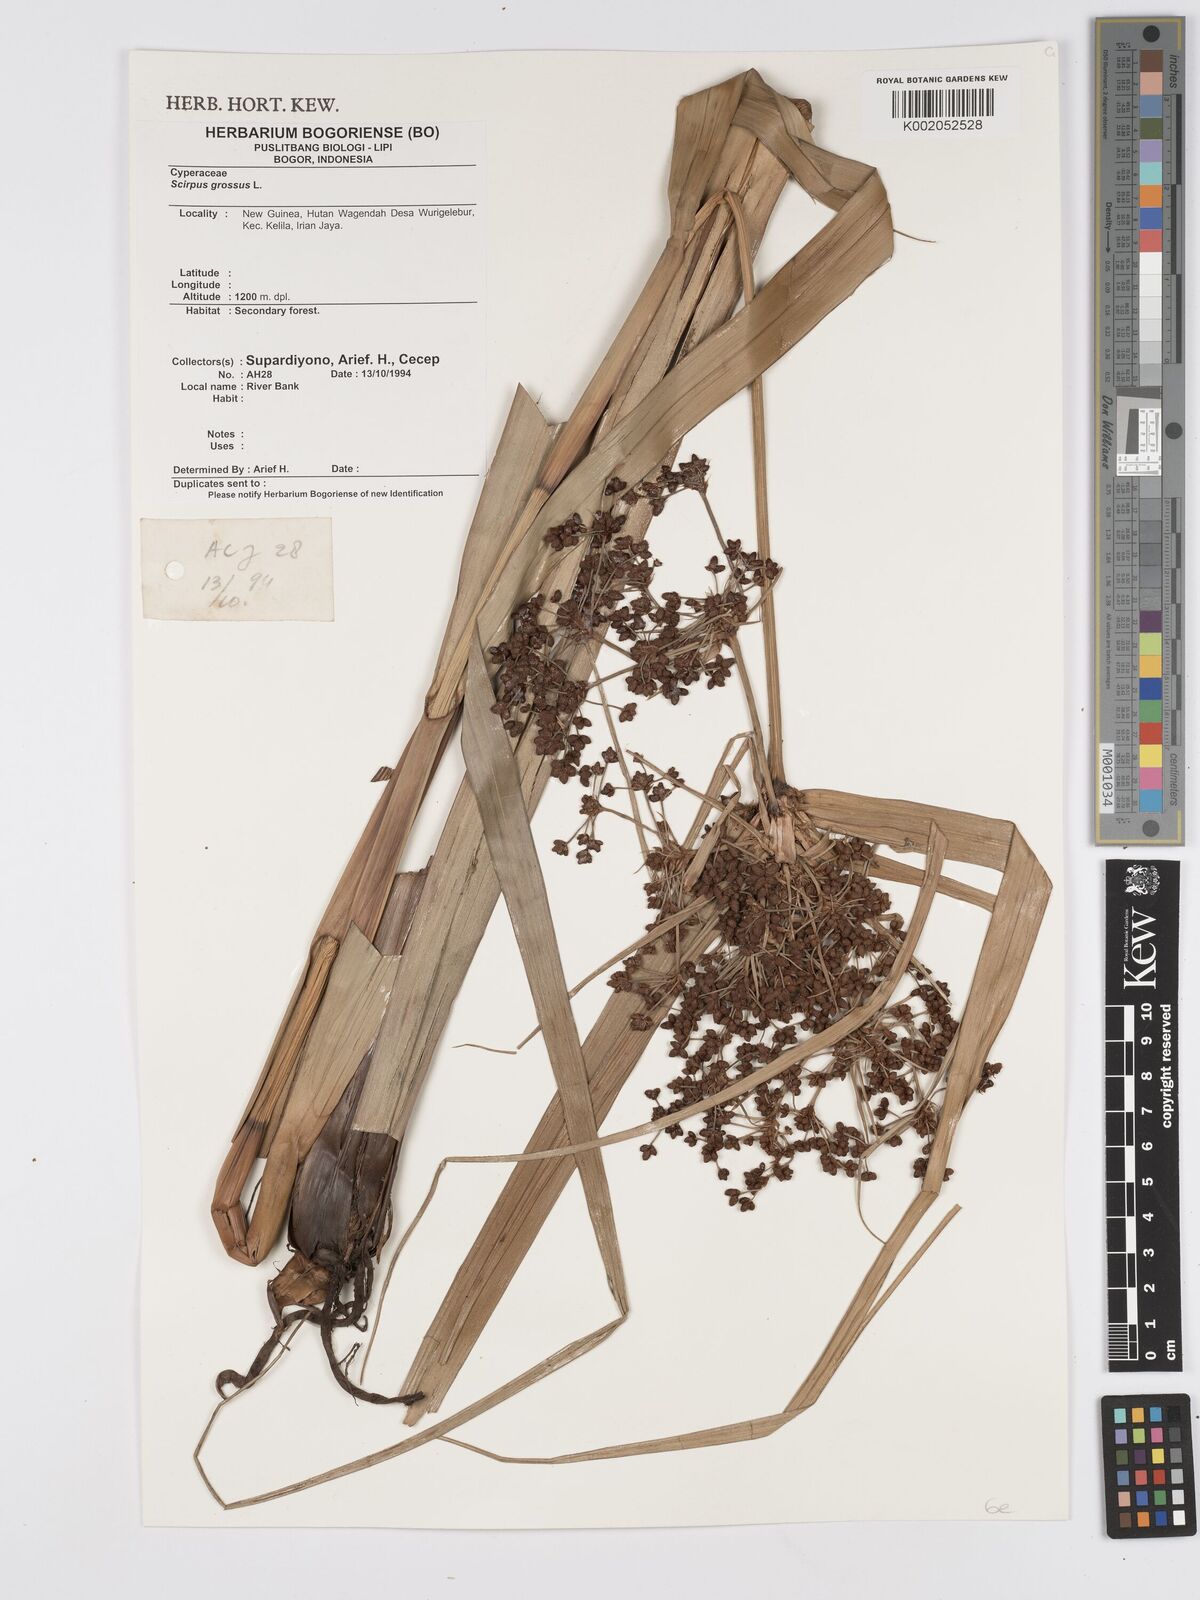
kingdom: Plantae
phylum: Tracheophyta
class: Liliopsida
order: Poales
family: Cyperaceae
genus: Scirpus
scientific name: Scirpus ternatanus
